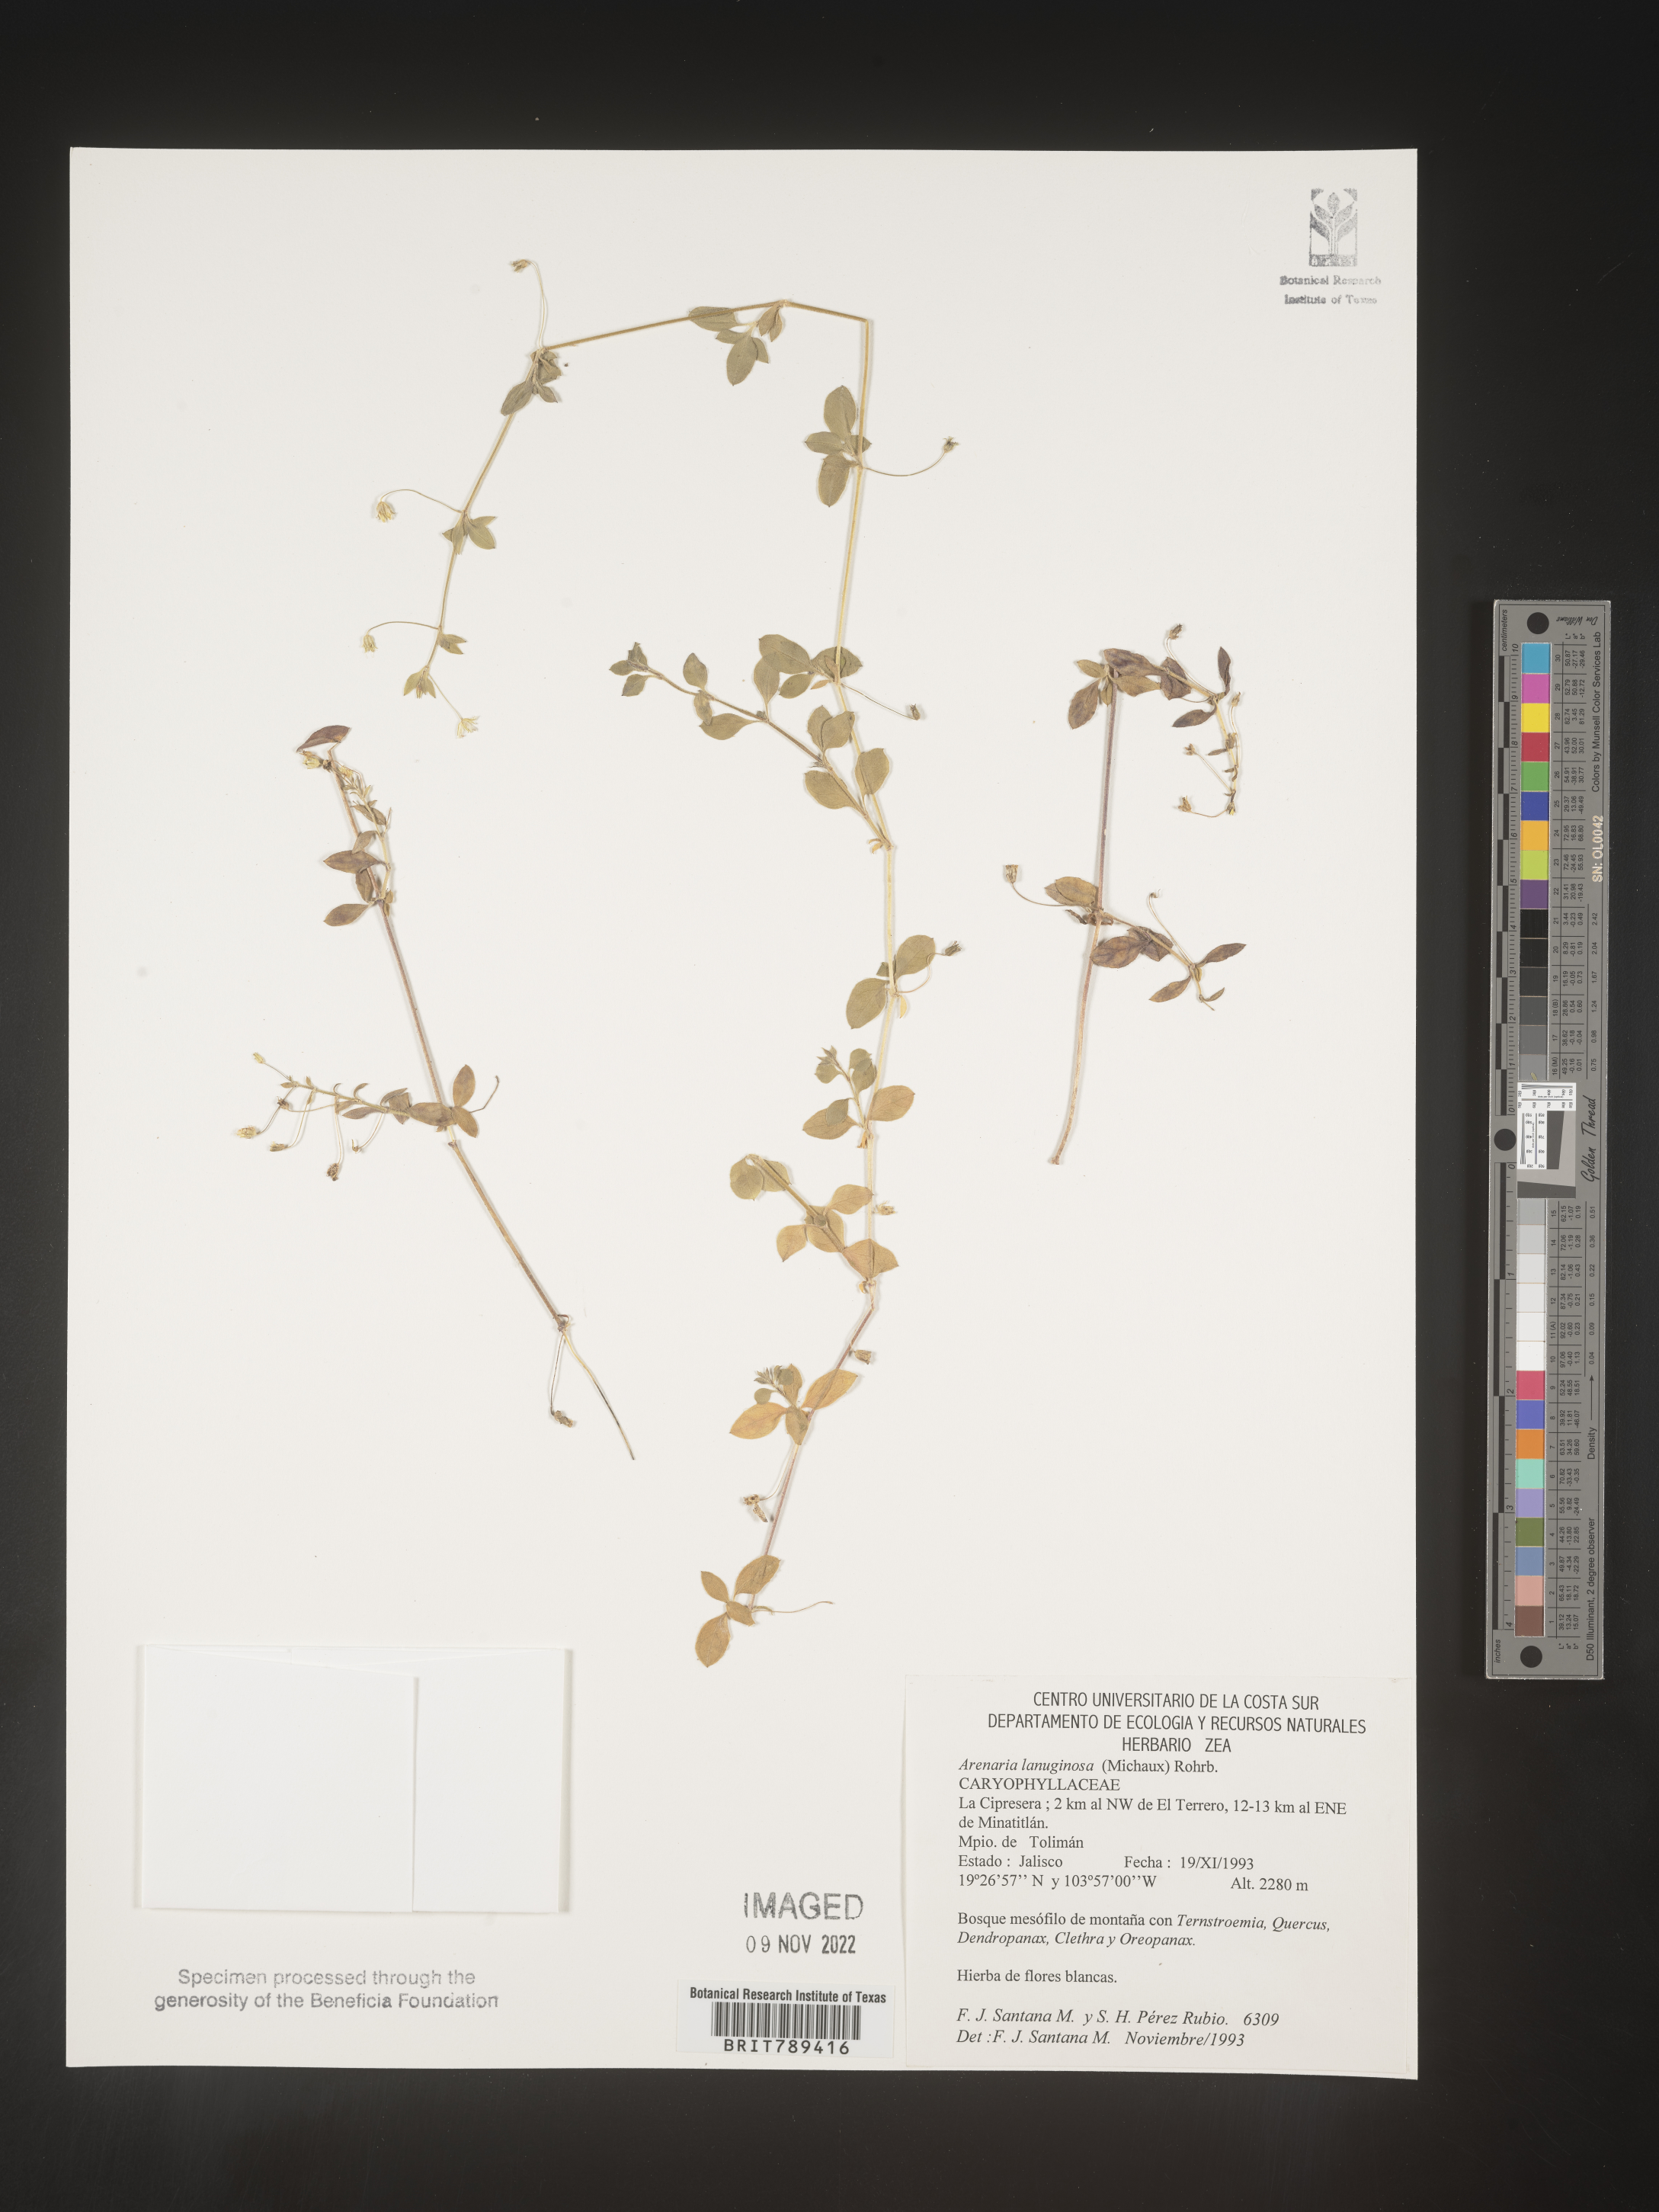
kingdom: Plantae
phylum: Tracheophyta
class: Magnoliopsida
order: Caryophyllales
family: Caryophyllaceae
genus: Arenaria
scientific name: Arenaria
